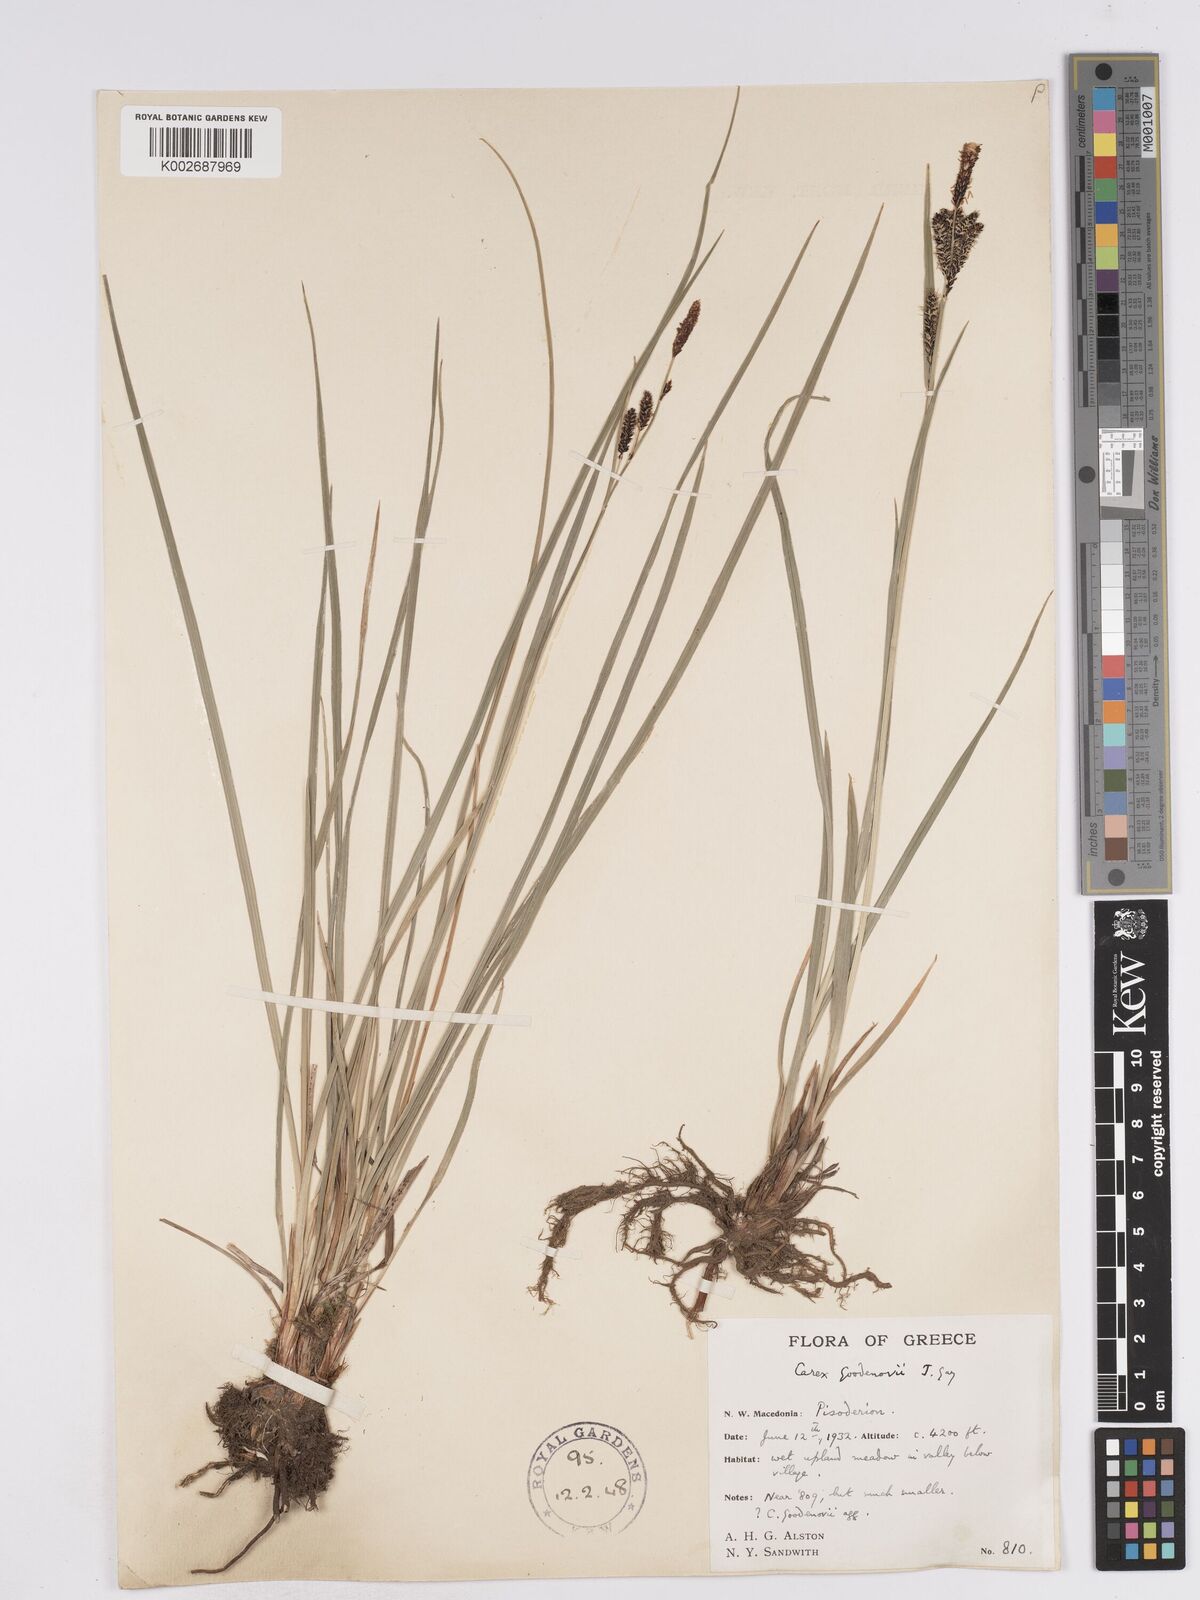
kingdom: Plantae
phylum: Tracheophyta
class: Liliopsida
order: Poales
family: Cyperaceae
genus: Carex
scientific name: Carex acuta
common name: Slender tufted-sedge
